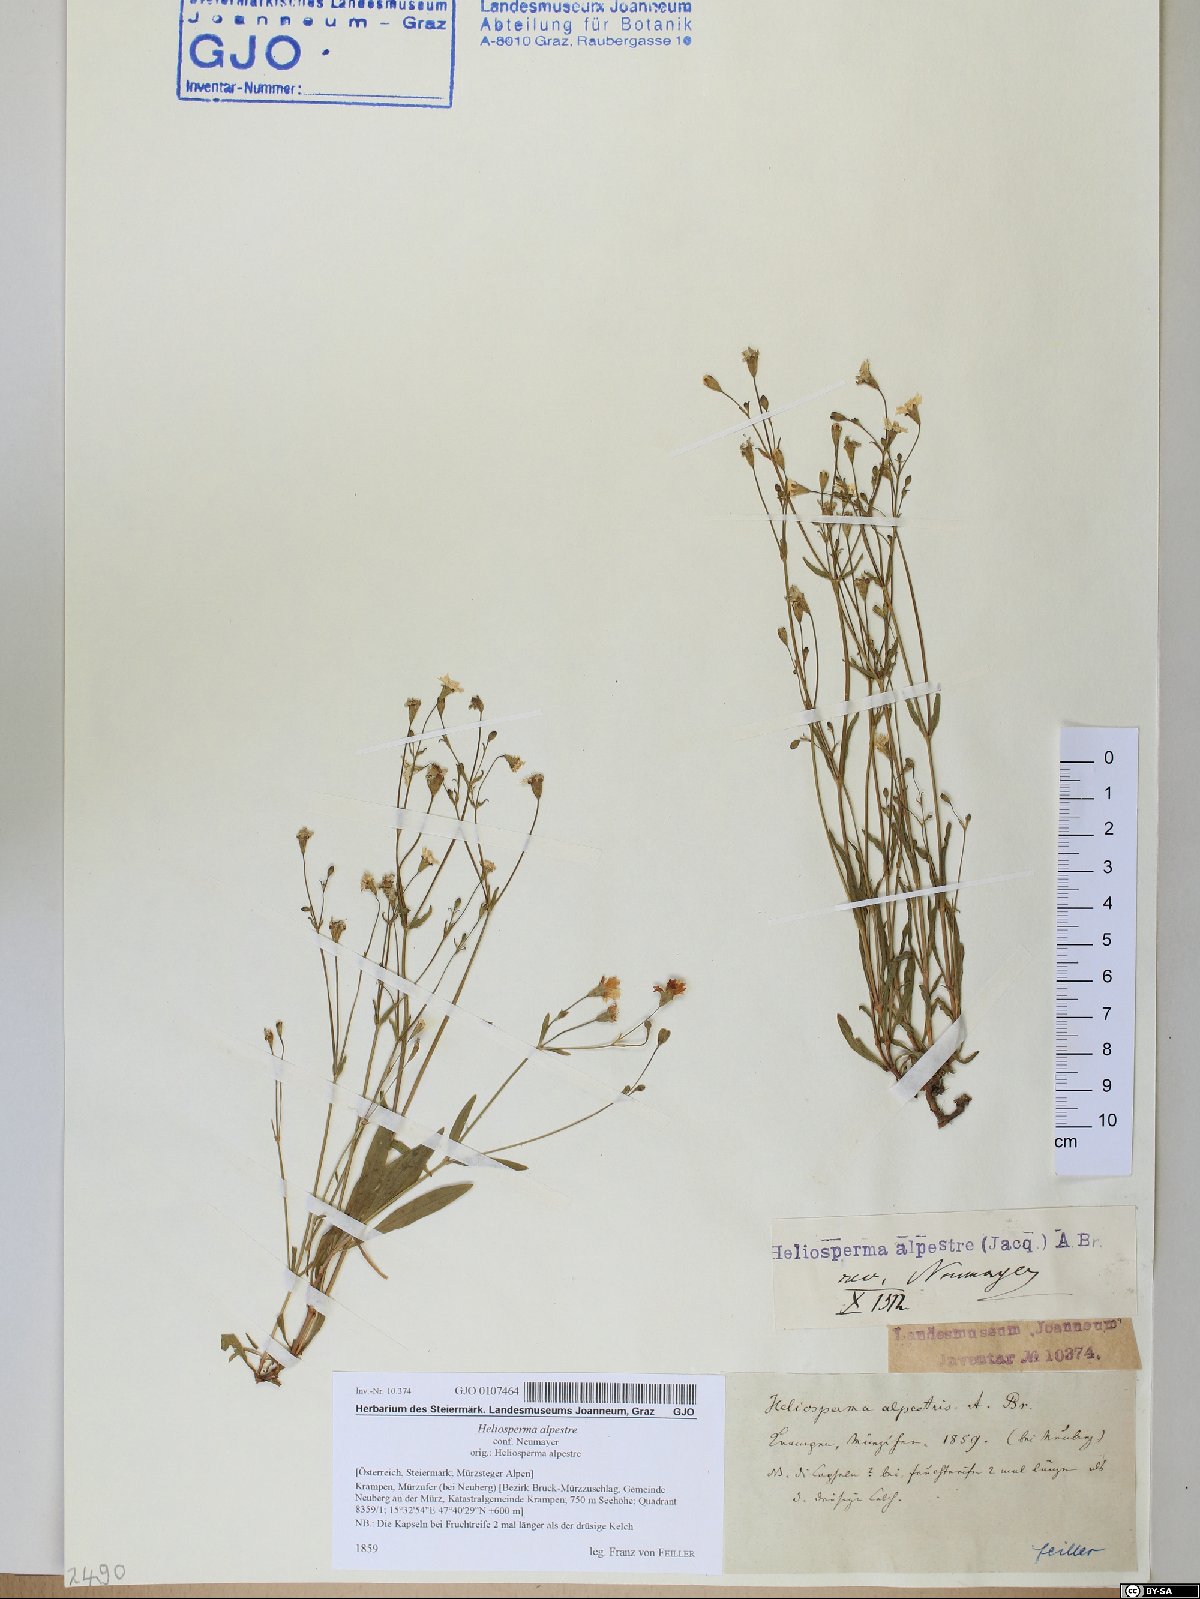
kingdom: Plantae
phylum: Tracheophyta
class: Magnoliopsida
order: Caryophyllales
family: Caryophyllaceae
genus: Heliosperma
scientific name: Heliosperma alpestre
